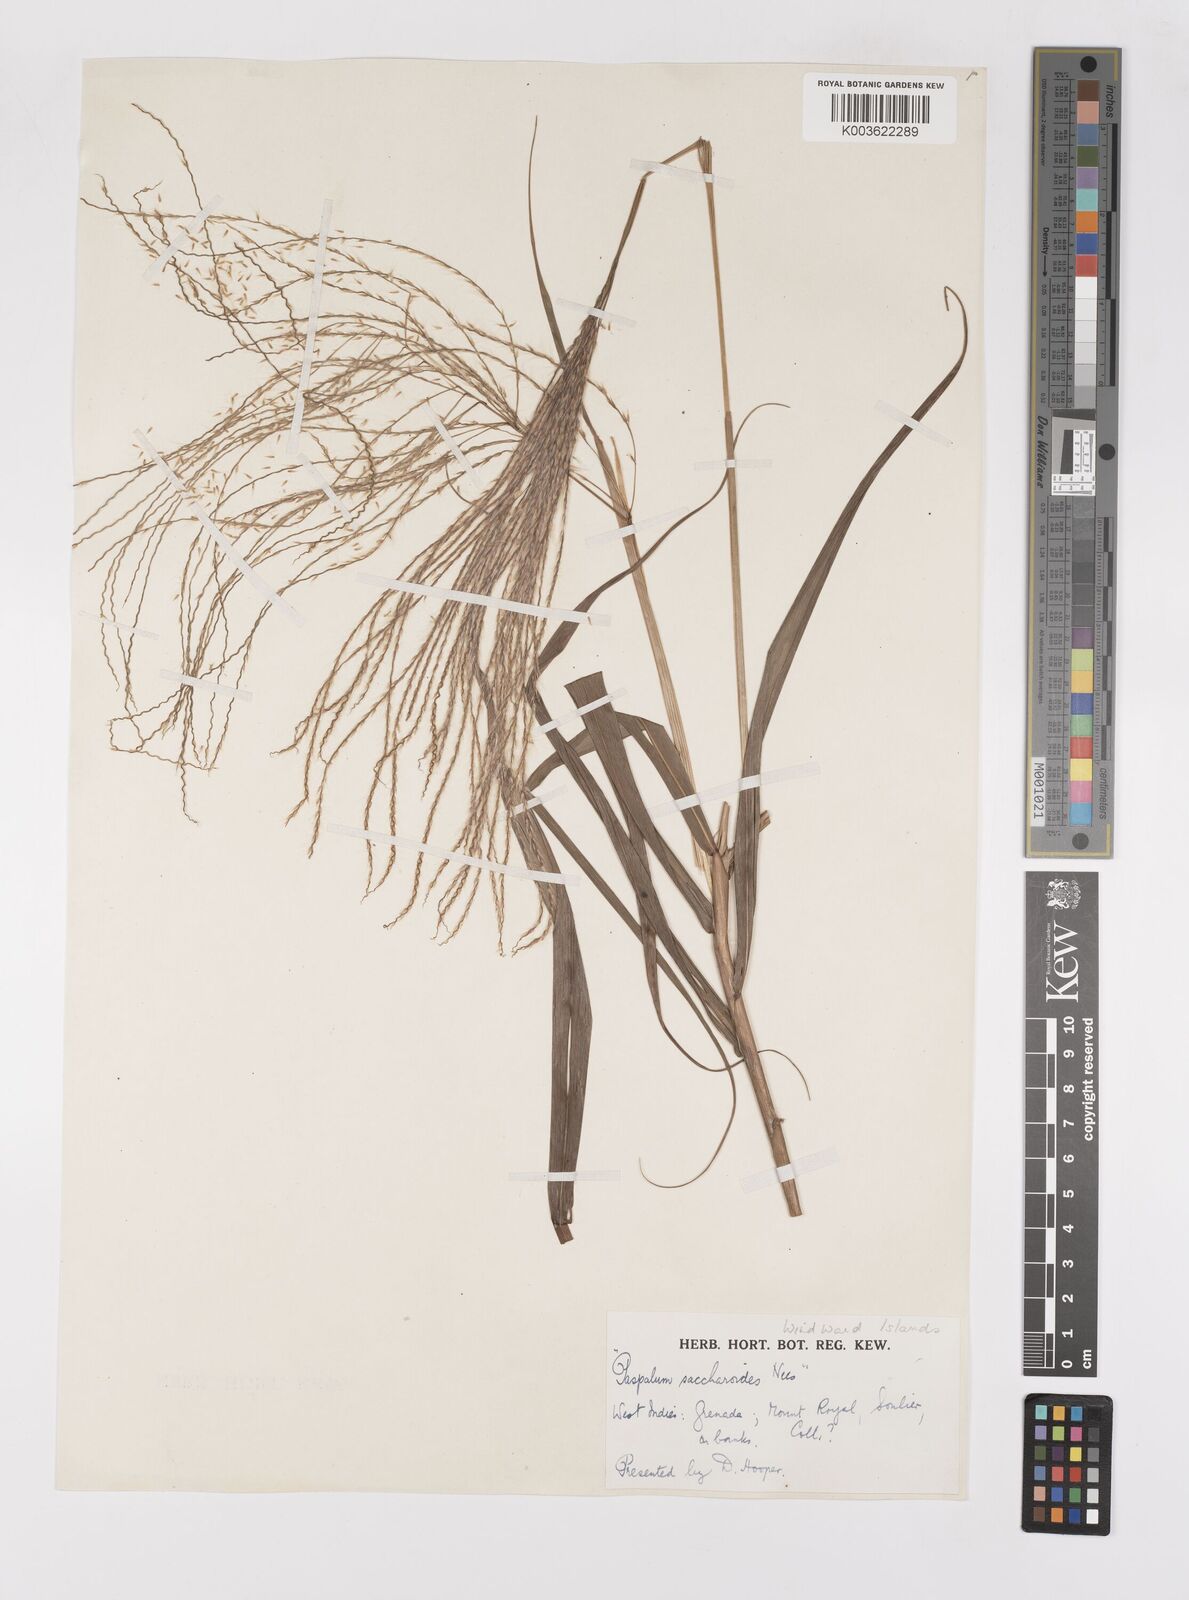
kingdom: Plantae
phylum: Tracheophyta
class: Liliopsida
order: Poales
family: Poaceae
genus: Paspalum
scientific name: Paspalum saccharoides
